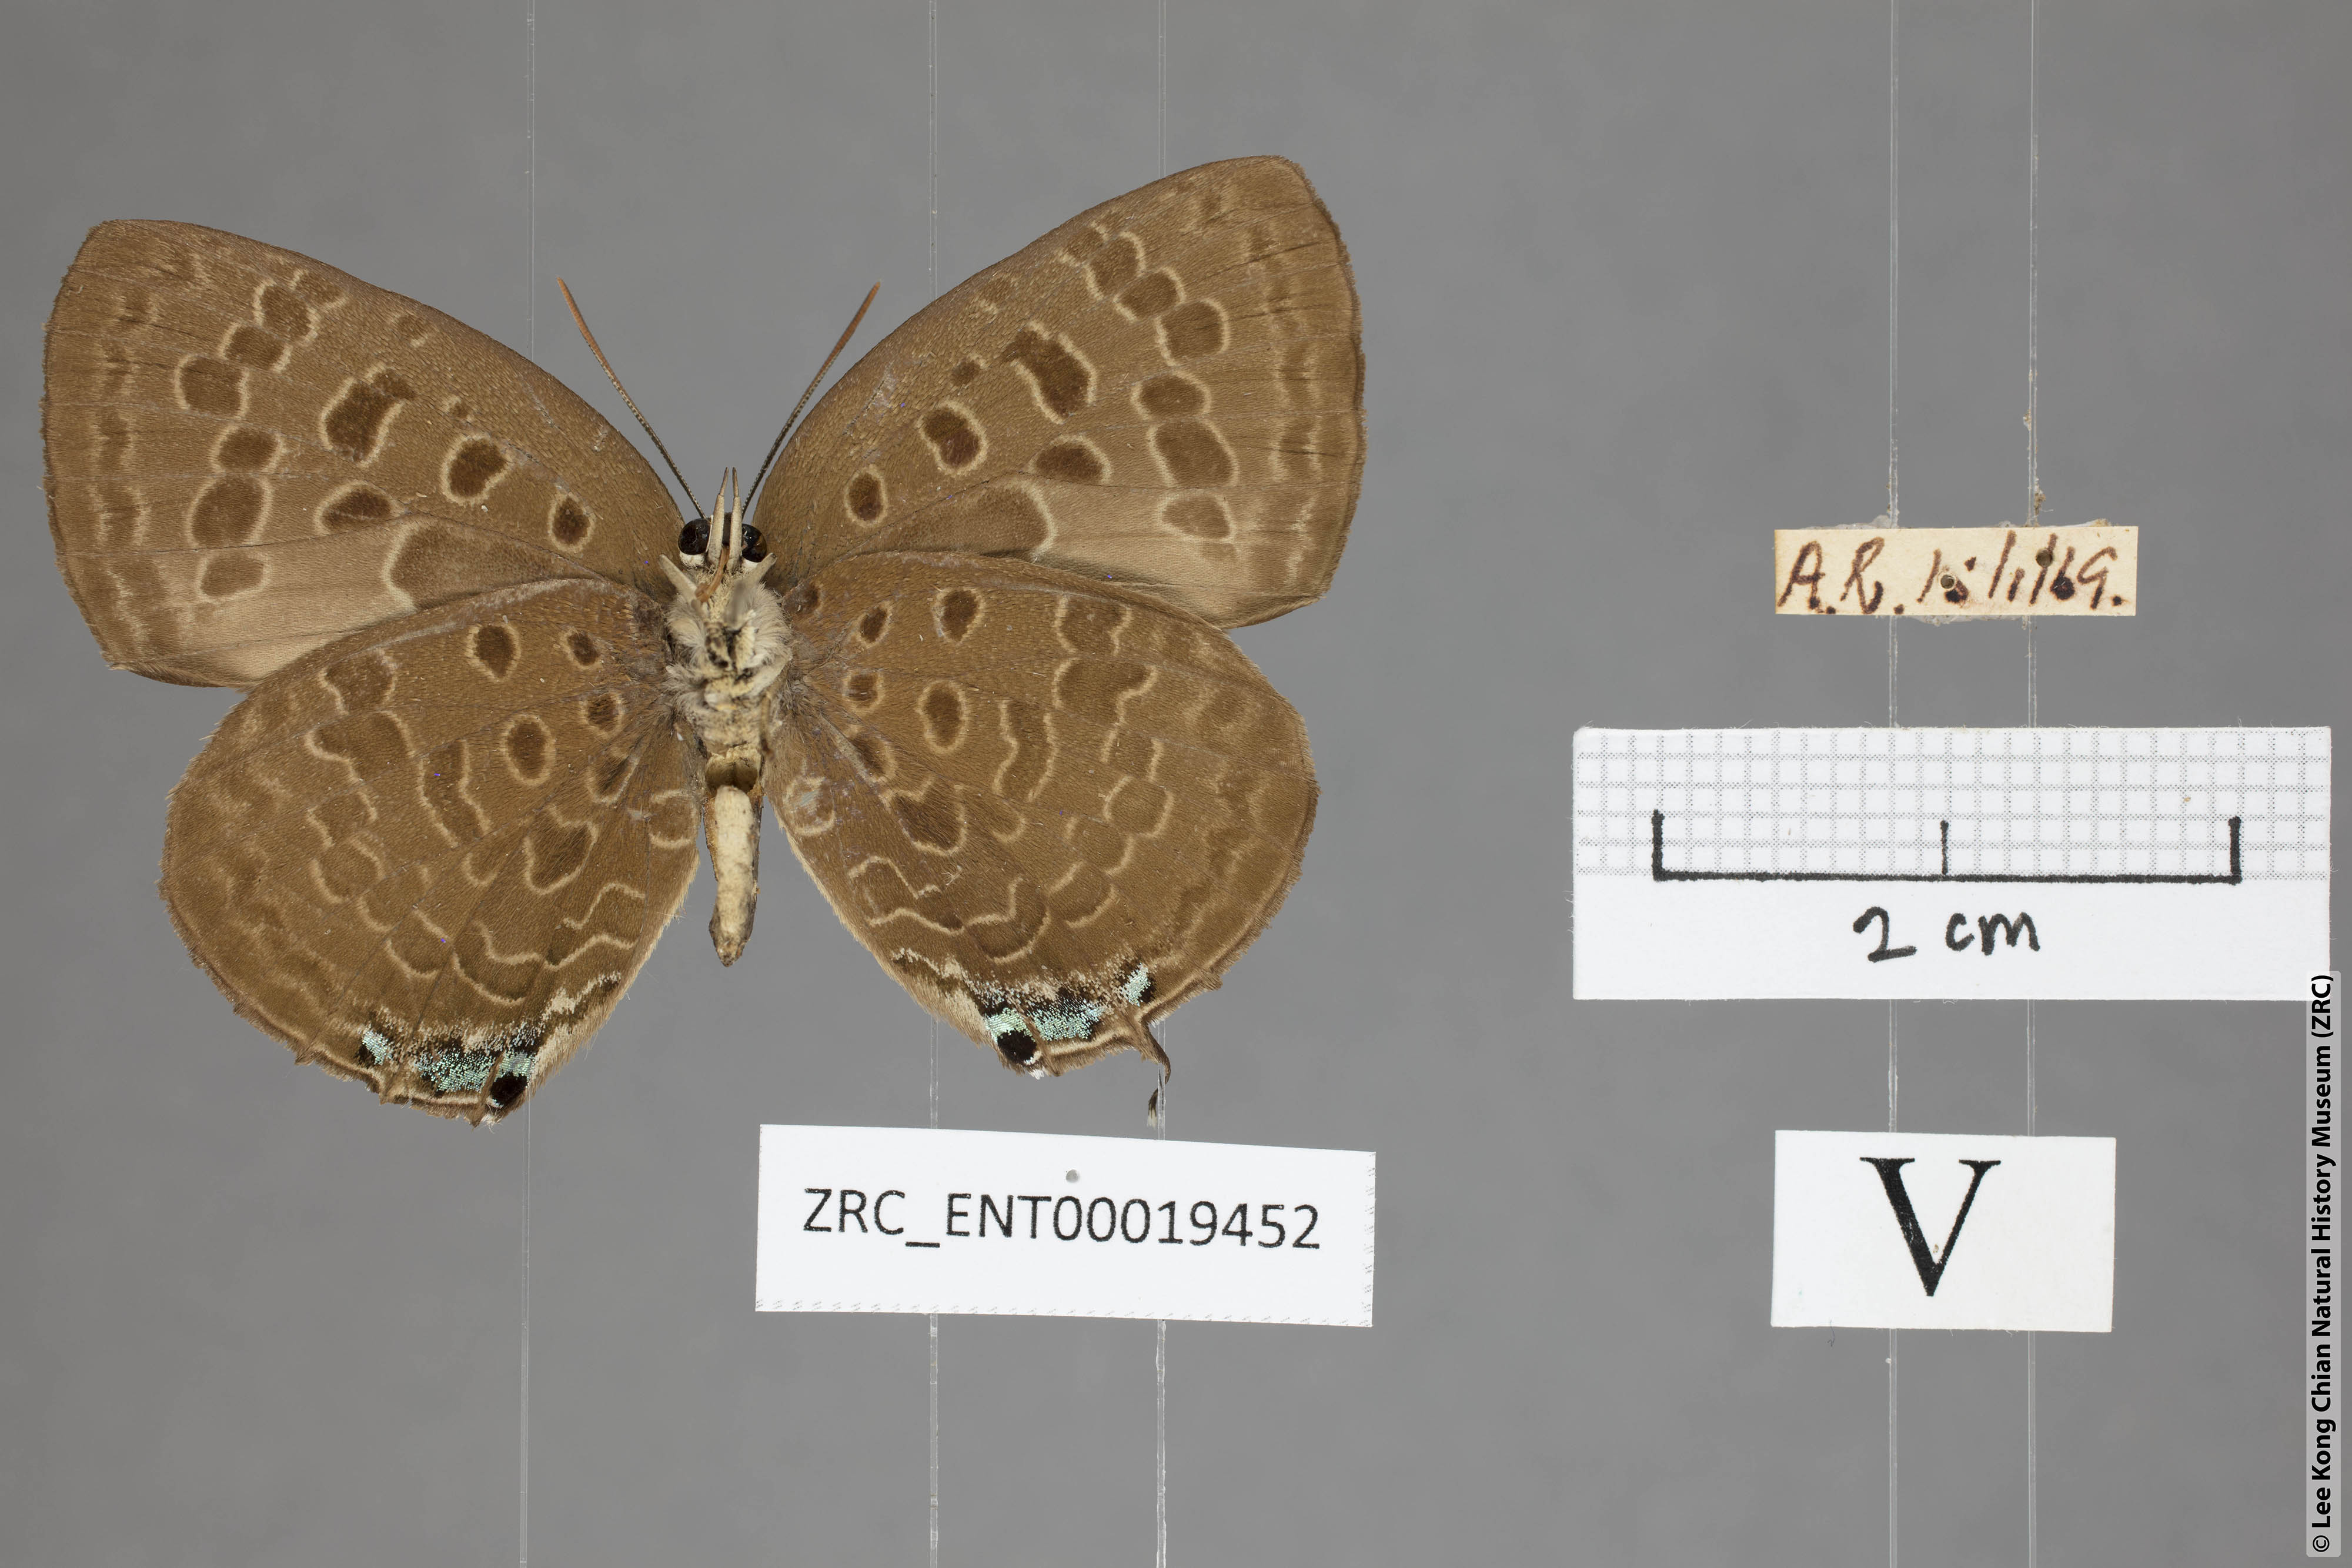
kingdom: Animalia
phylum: Arthropoda
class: Insecta
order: Lepidoptera
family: Lycaenidae
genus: Arhopala
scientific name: Arhopala eumolphus
